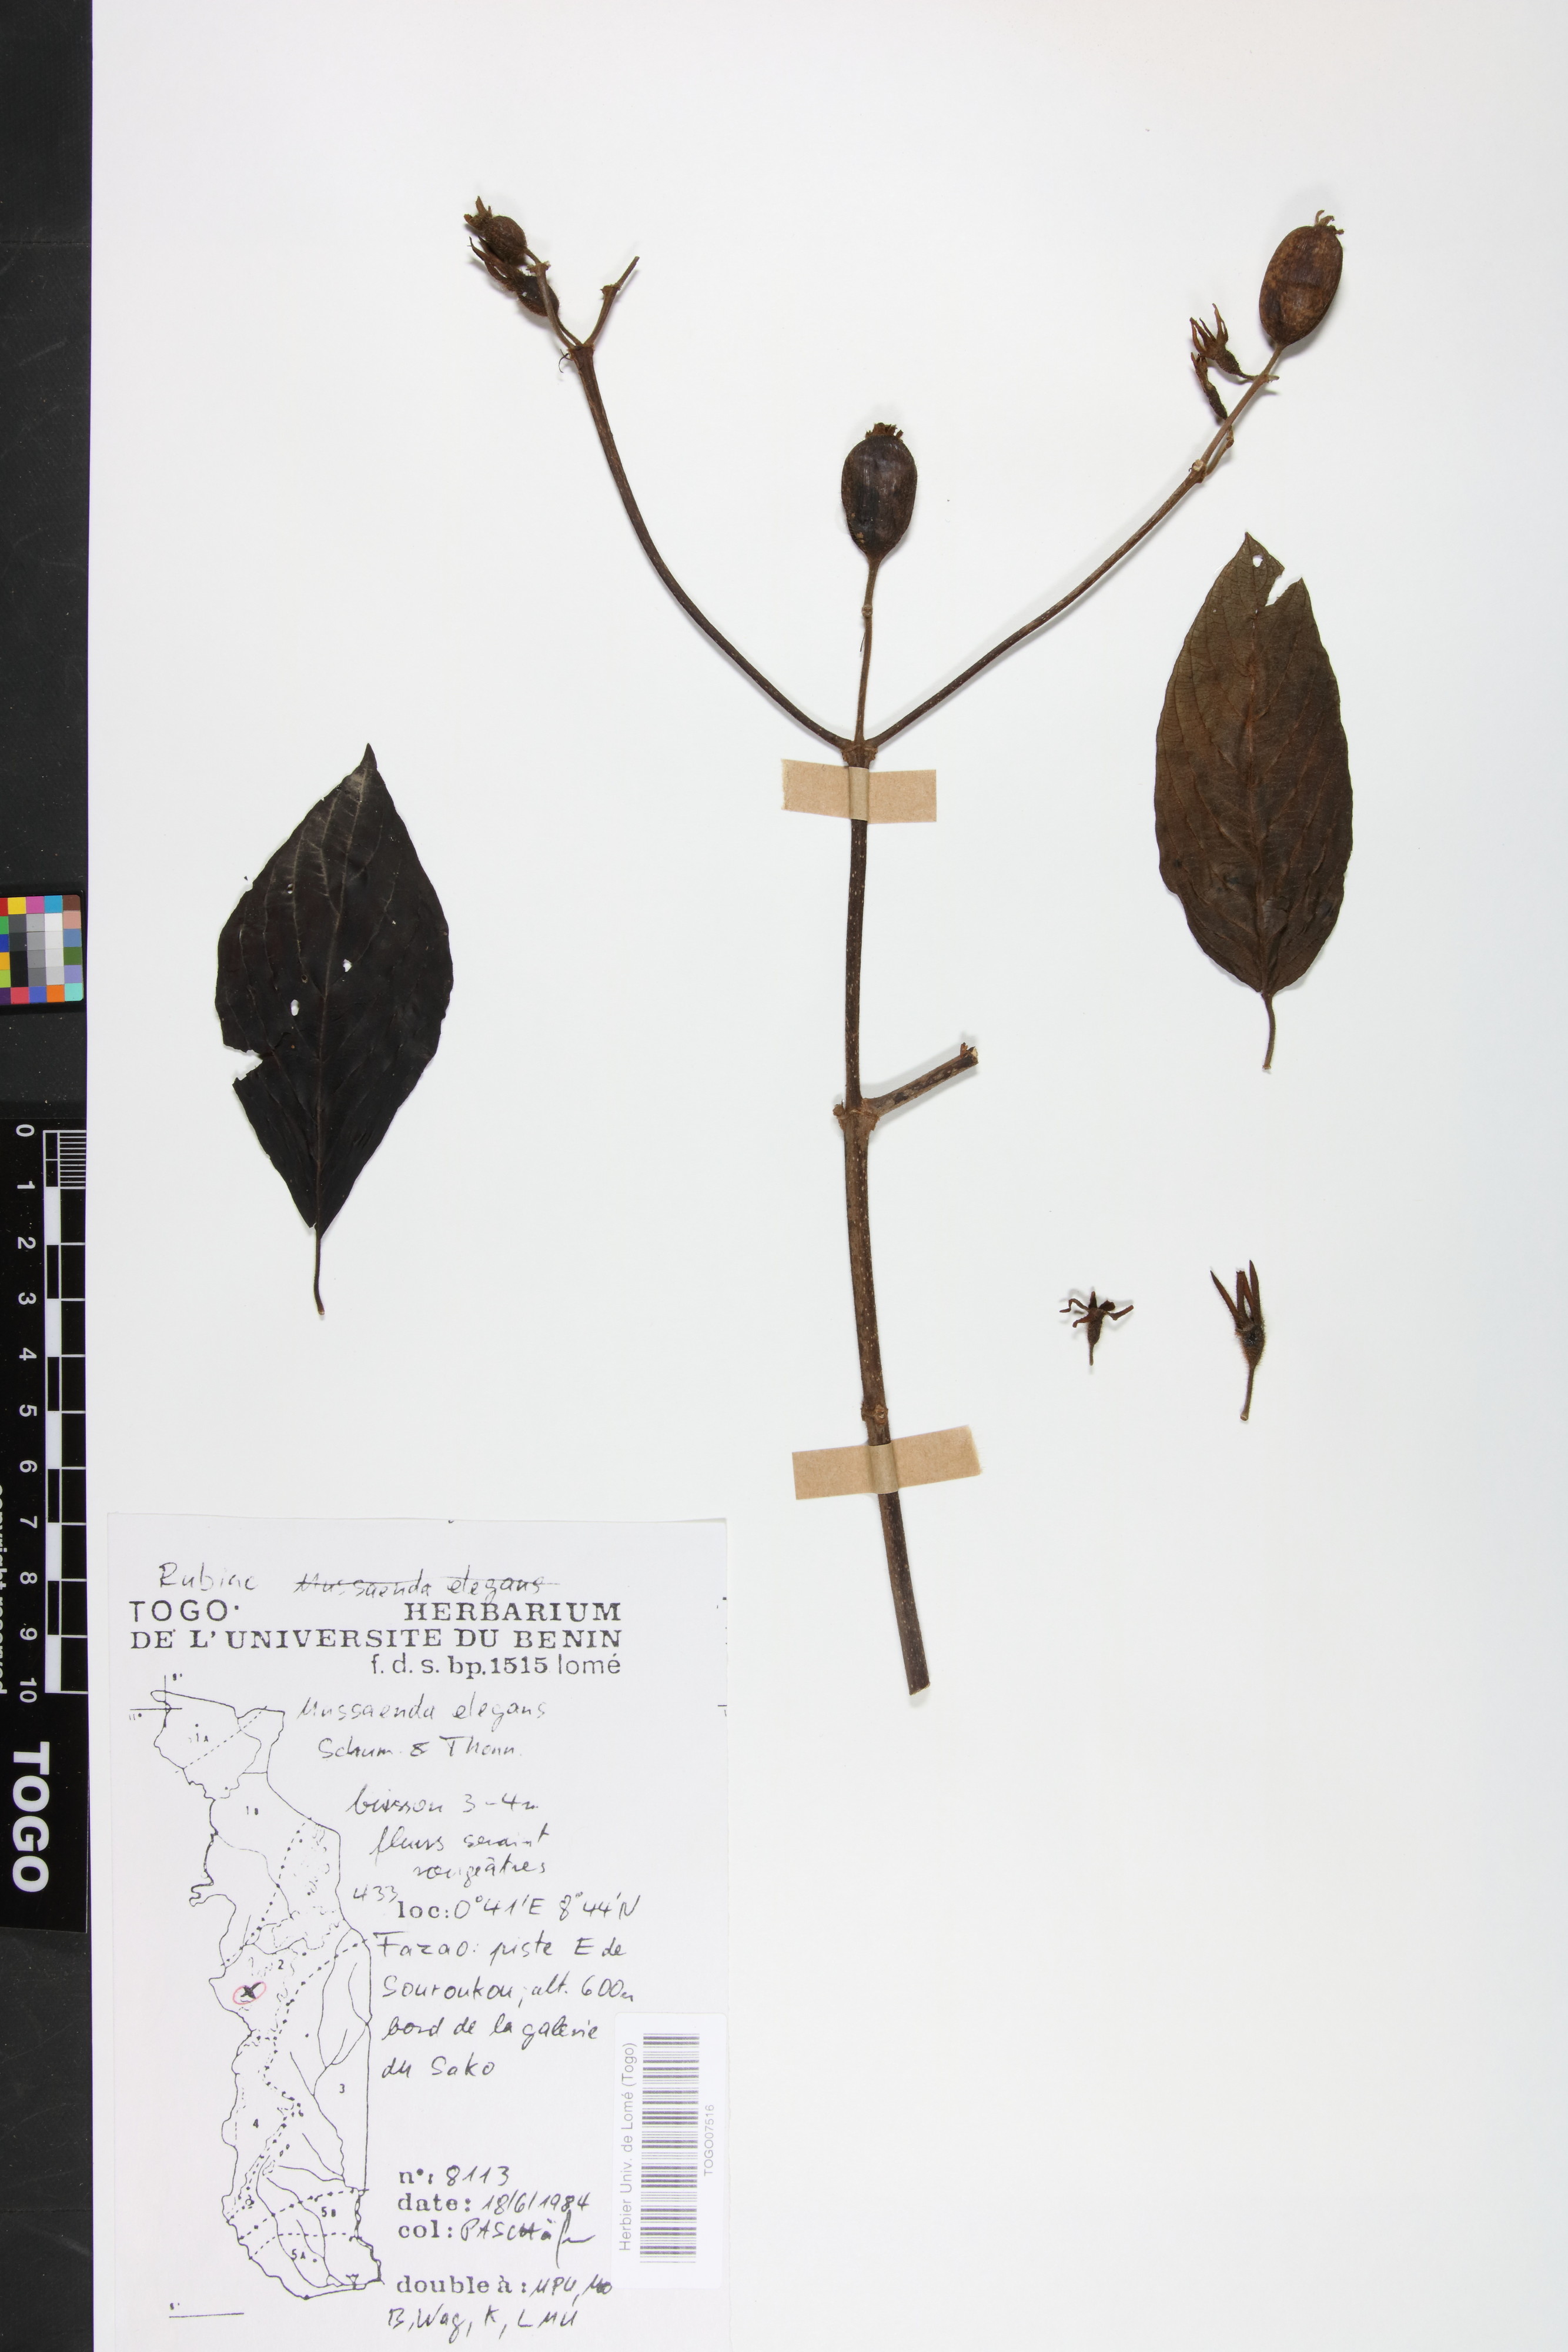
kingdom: Plantae
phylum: Tracheophyta
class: Magnoliopsida
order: Gentianales
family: Rubiaceae
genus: Mussaenda
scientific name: Mussaenda elegans
